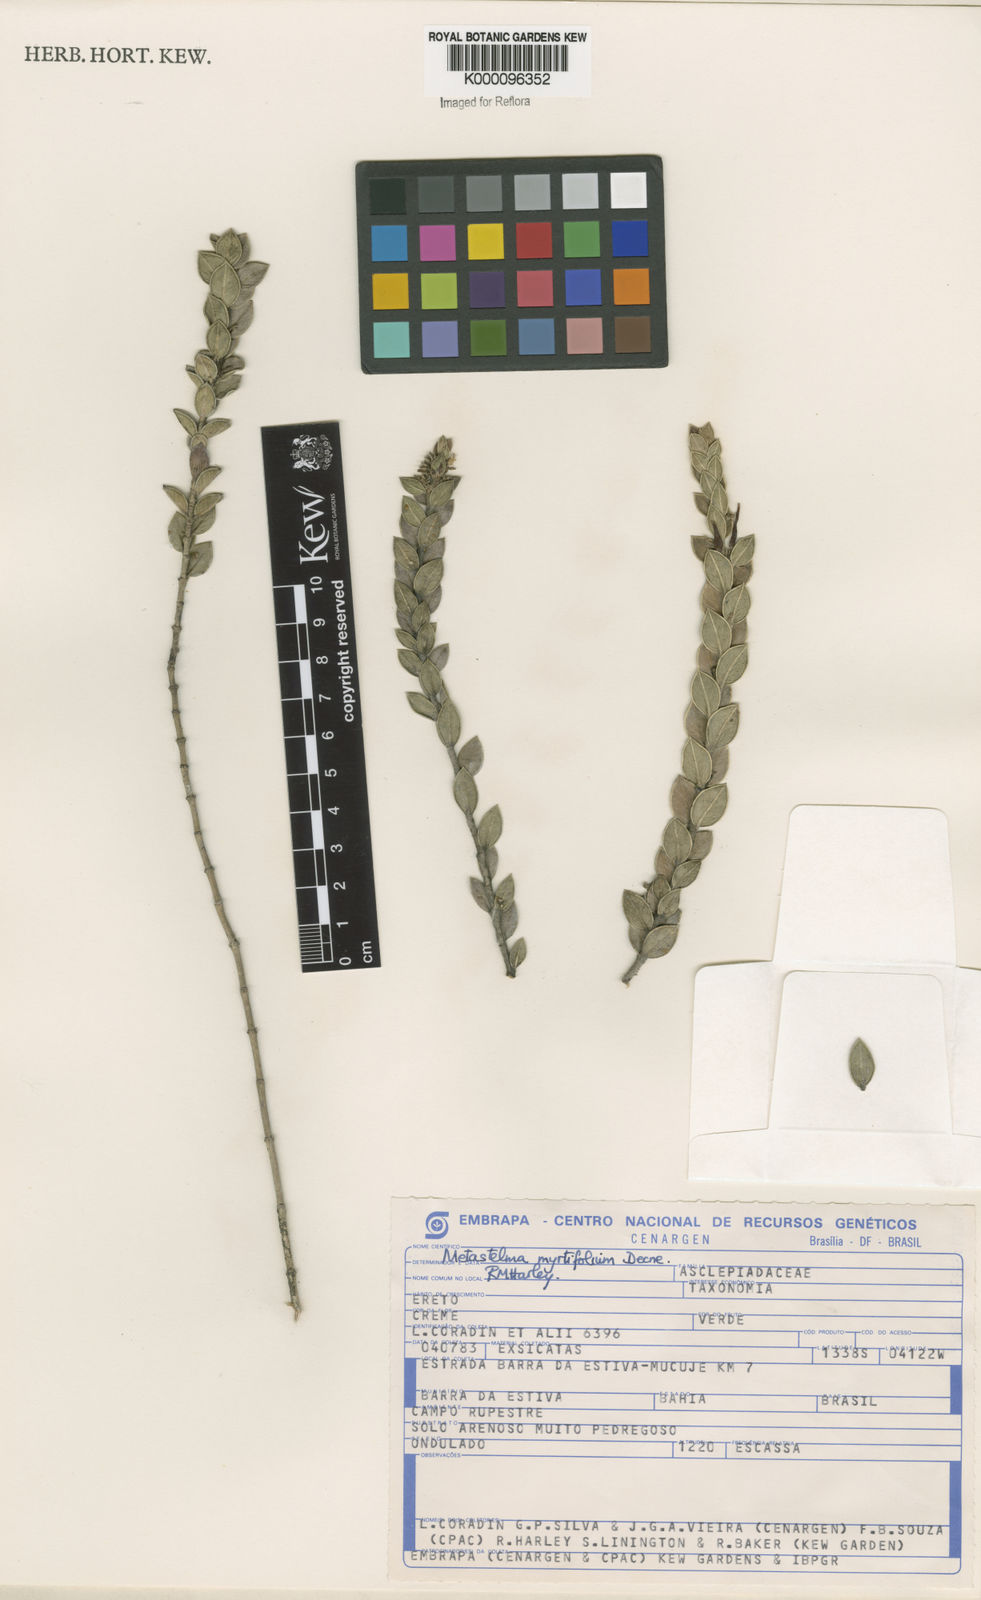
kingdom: Plantae
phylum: Tracheophyta
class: Magnoliopsida
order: Gentianales
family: Apocynaceae
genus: Metastelma
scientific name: Metastelma myrtifolium
